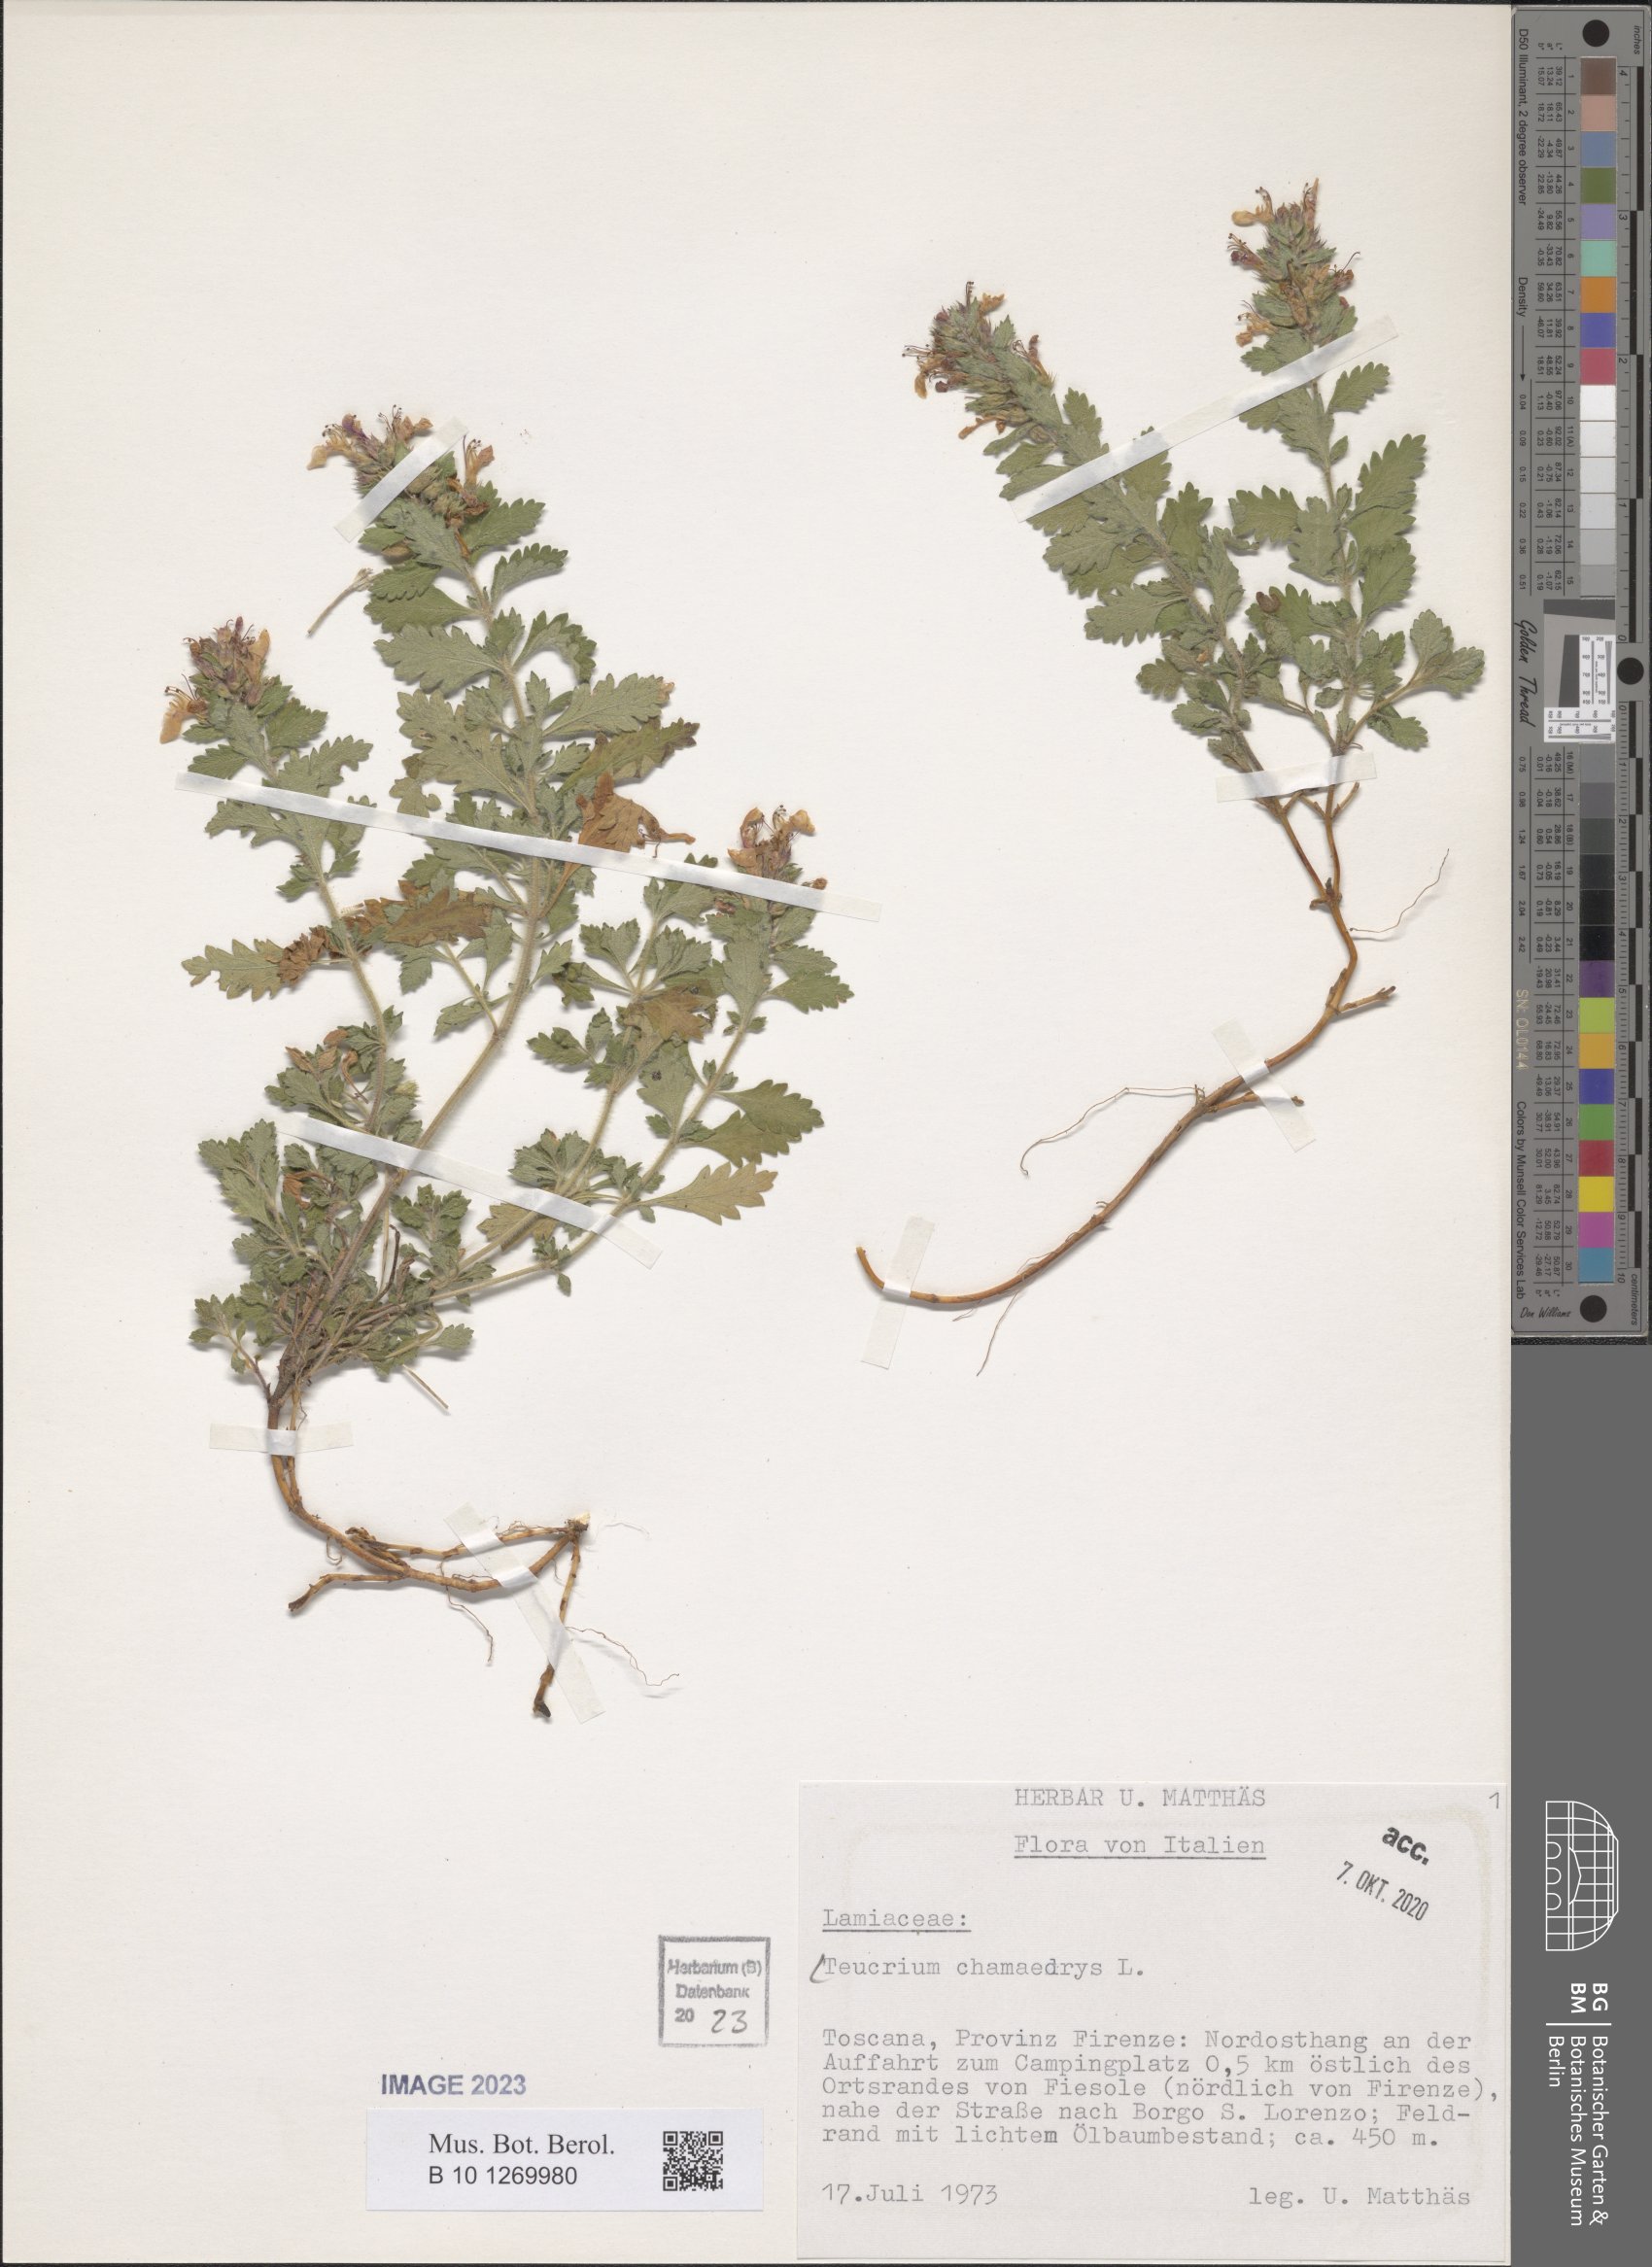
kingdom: Plantae
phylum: Tracheophyta
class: Magnoliopsida
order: Lamiales
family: Lamiaceae
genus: Teucrium
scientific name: Teucrium chamaedrys
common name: Wall germander
